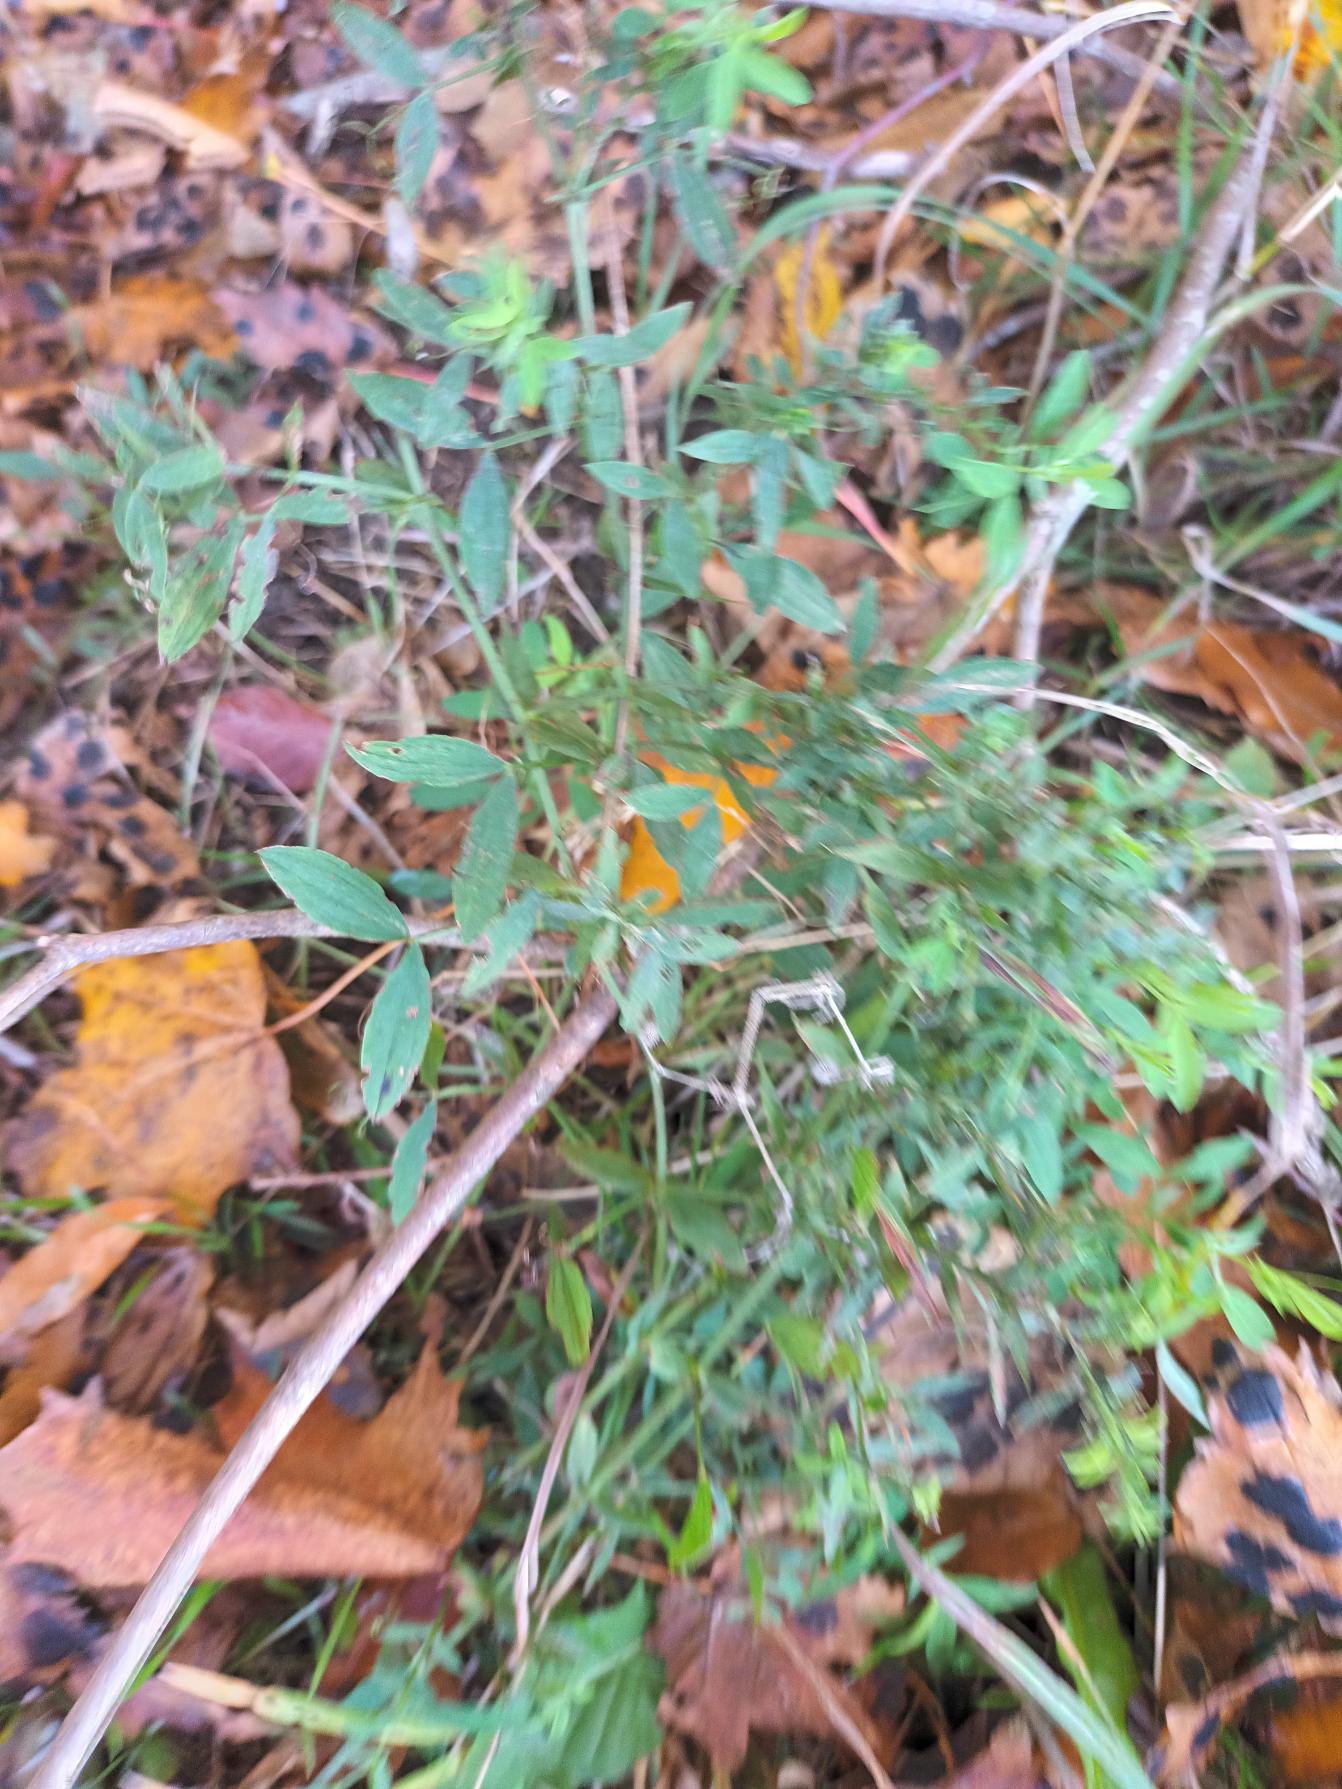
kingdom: Plantae
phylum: Tracheophyta
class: Magnoliopsida
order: Fabales
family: Fabaceae
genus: Lathyrus
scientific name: Lathyrus pratensis
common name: Gul fladbælg
